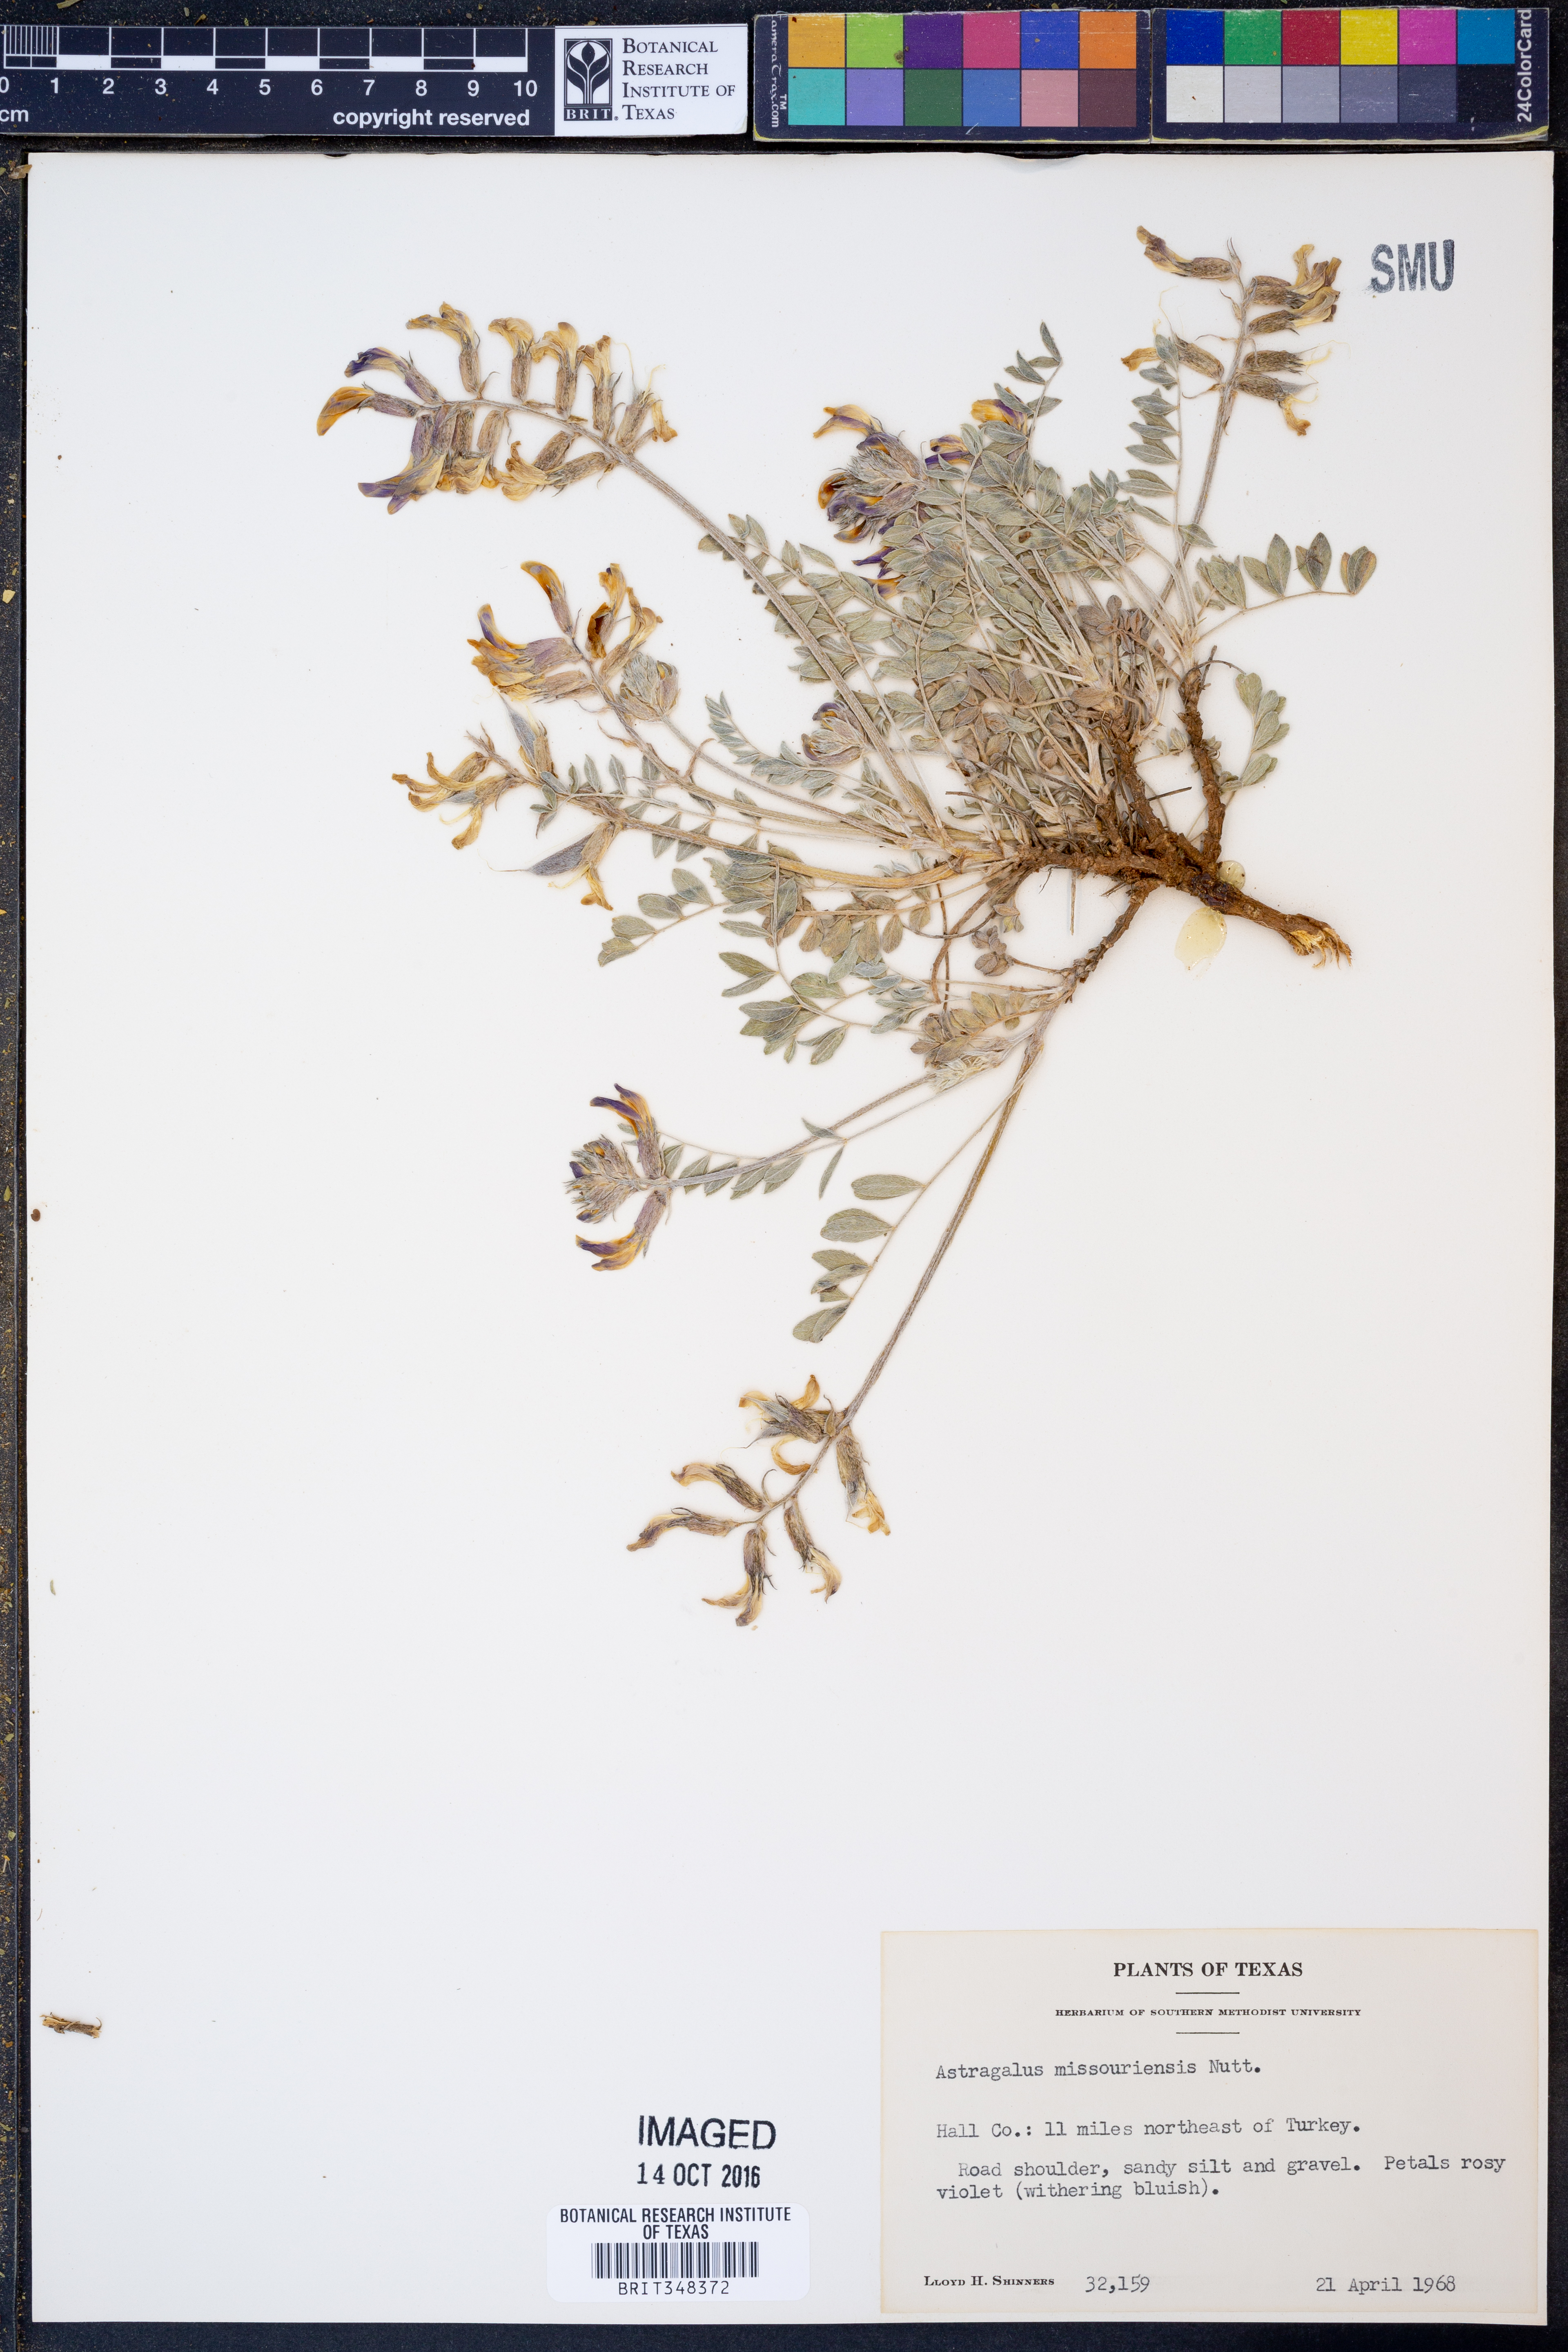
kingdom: Plantae
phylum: Tracheophyta
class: Magnoliopsida
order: Fabales
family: Fabaceae
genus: Astragalus
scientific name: Astragalus missouriensis
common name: Missouri milk-vetch
